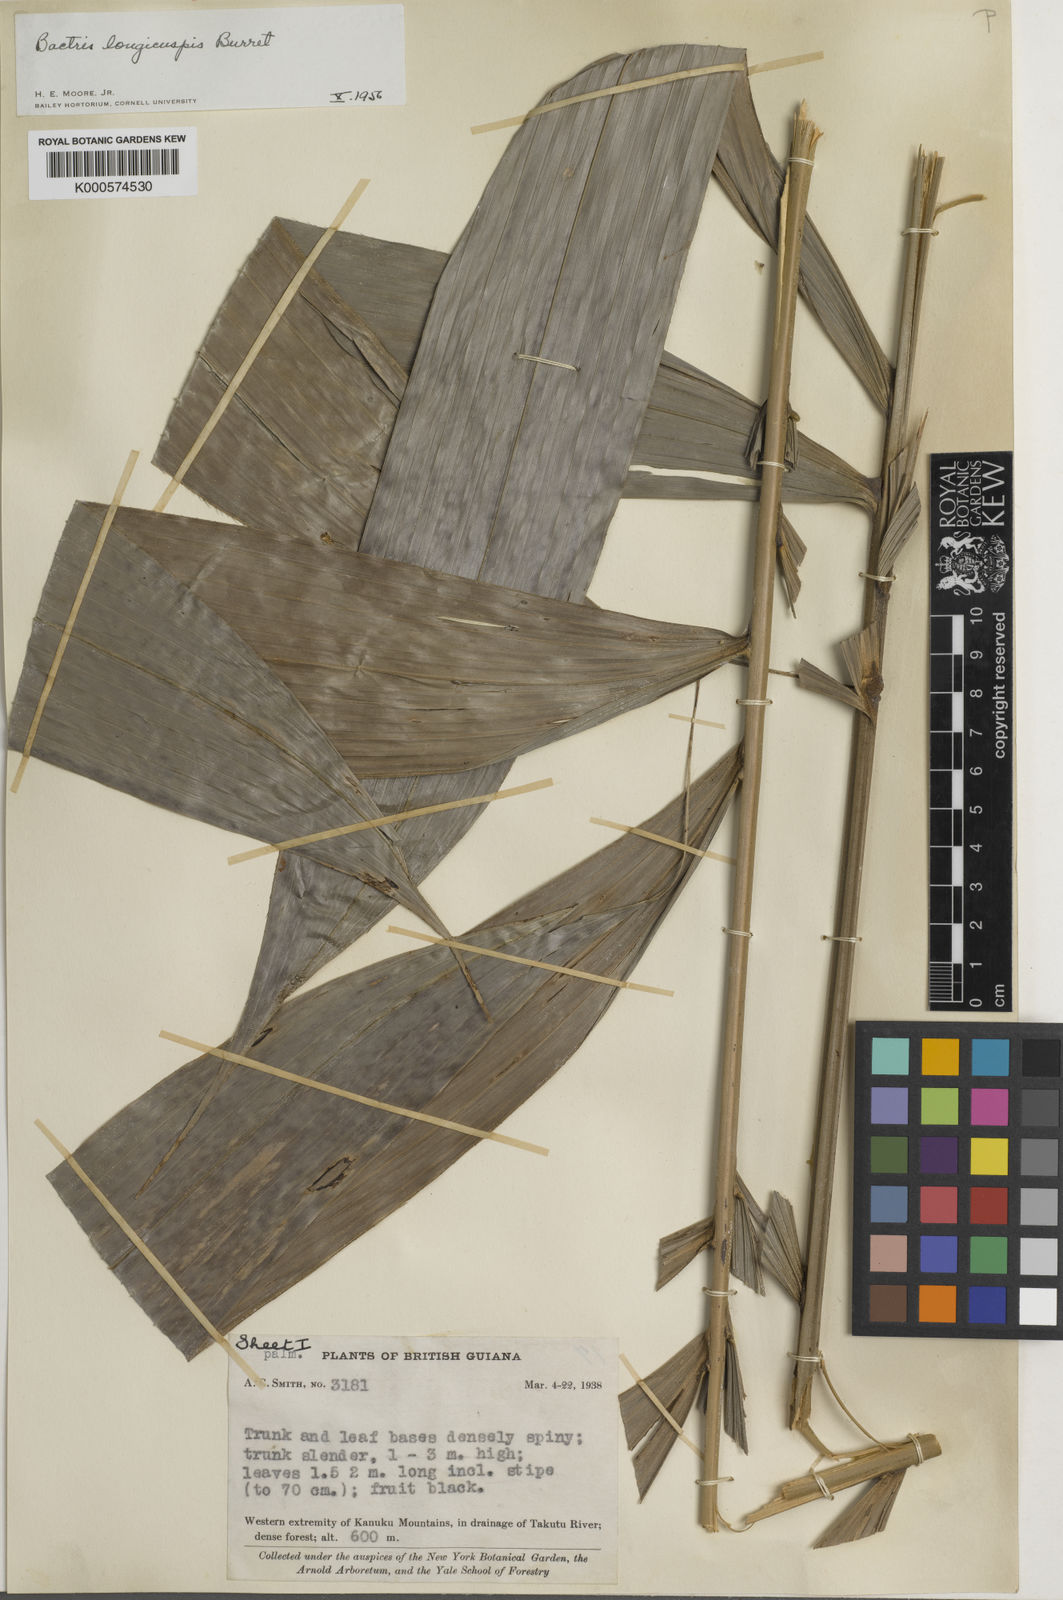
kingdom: Plantae
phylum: Tracheophyta
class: Liliopsida
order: Arecales
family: Arecaceae
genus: Bactris
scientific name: Bactris maraja
